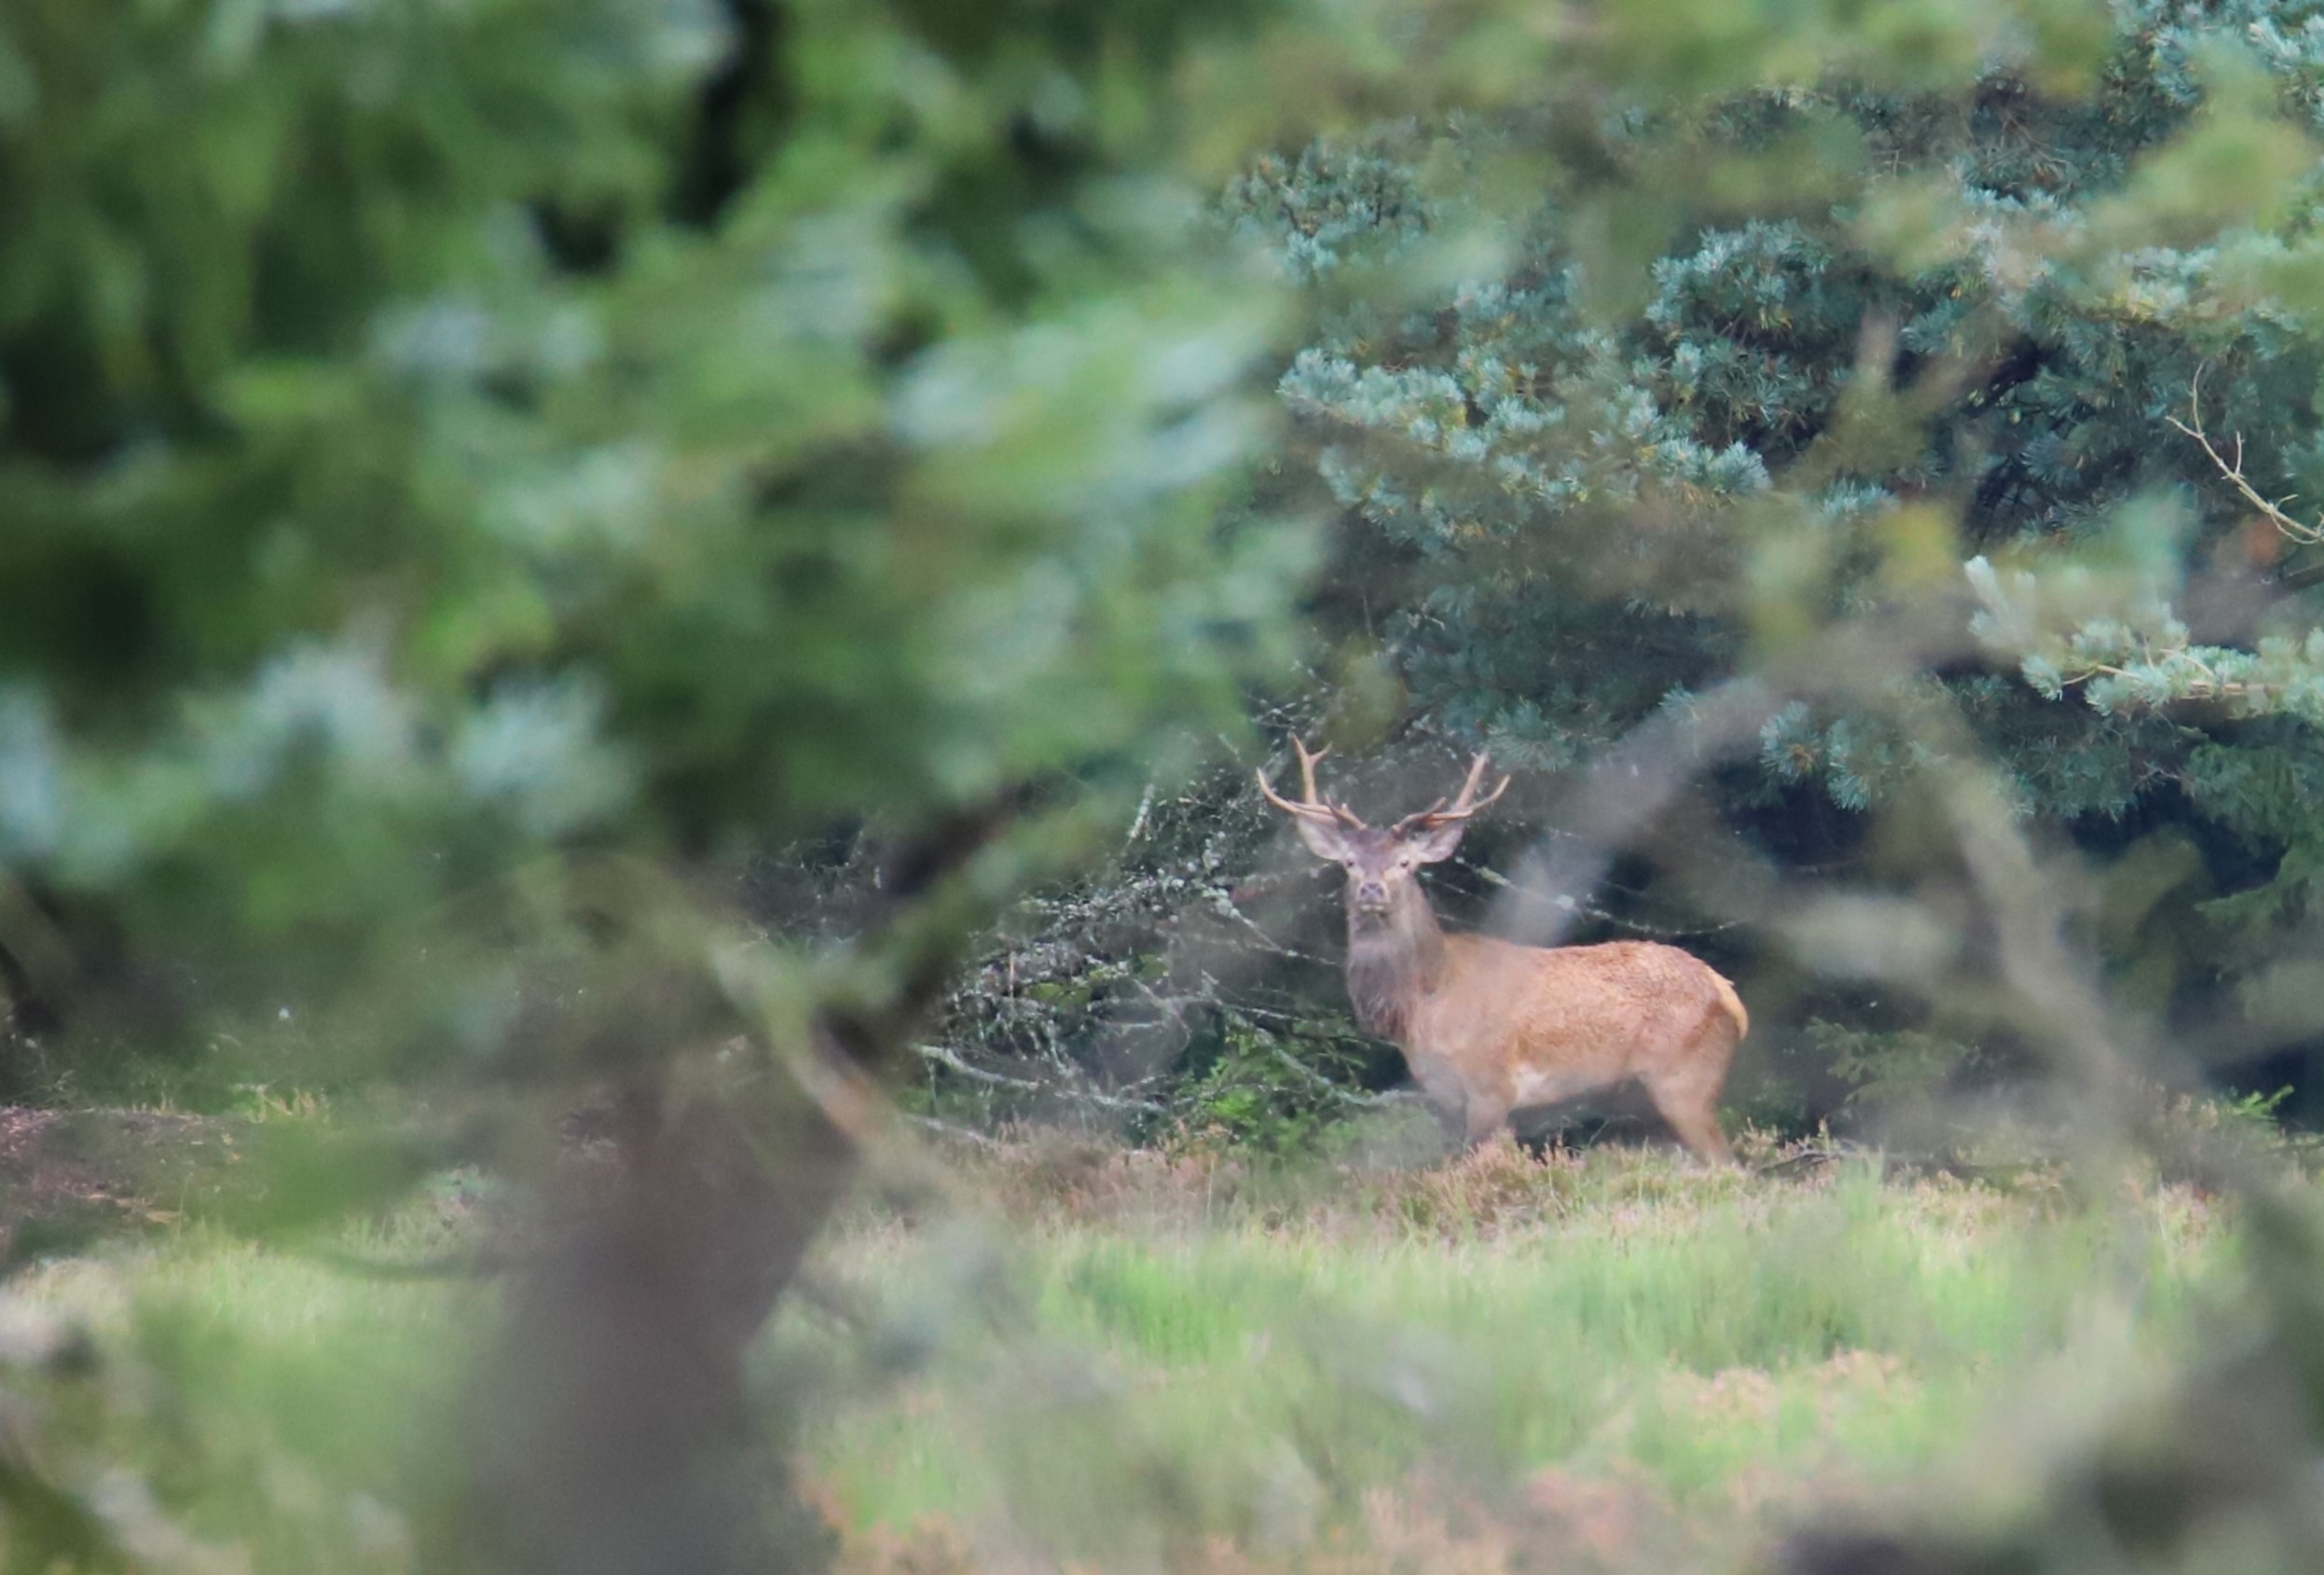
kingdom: Animalia
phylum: Chordata
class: Mammalia
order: Artiodactyla
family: Cervidae
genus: Cervus
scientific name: Cervus elaphus
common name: Krondyr
